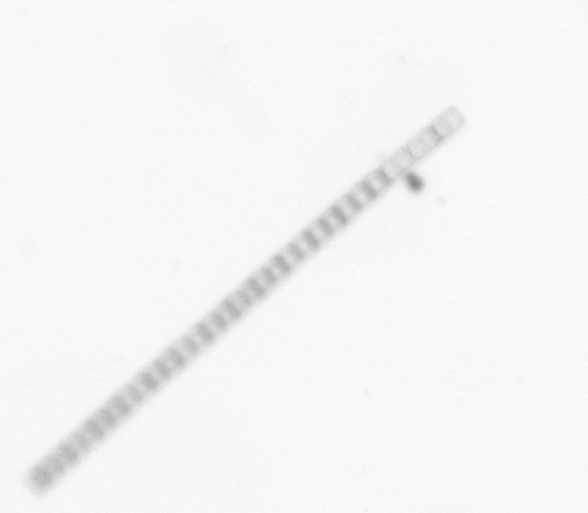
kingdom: Chromista
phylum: Ochrophyta
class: Bacillariophyceae
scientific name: Bacillariophyceae
